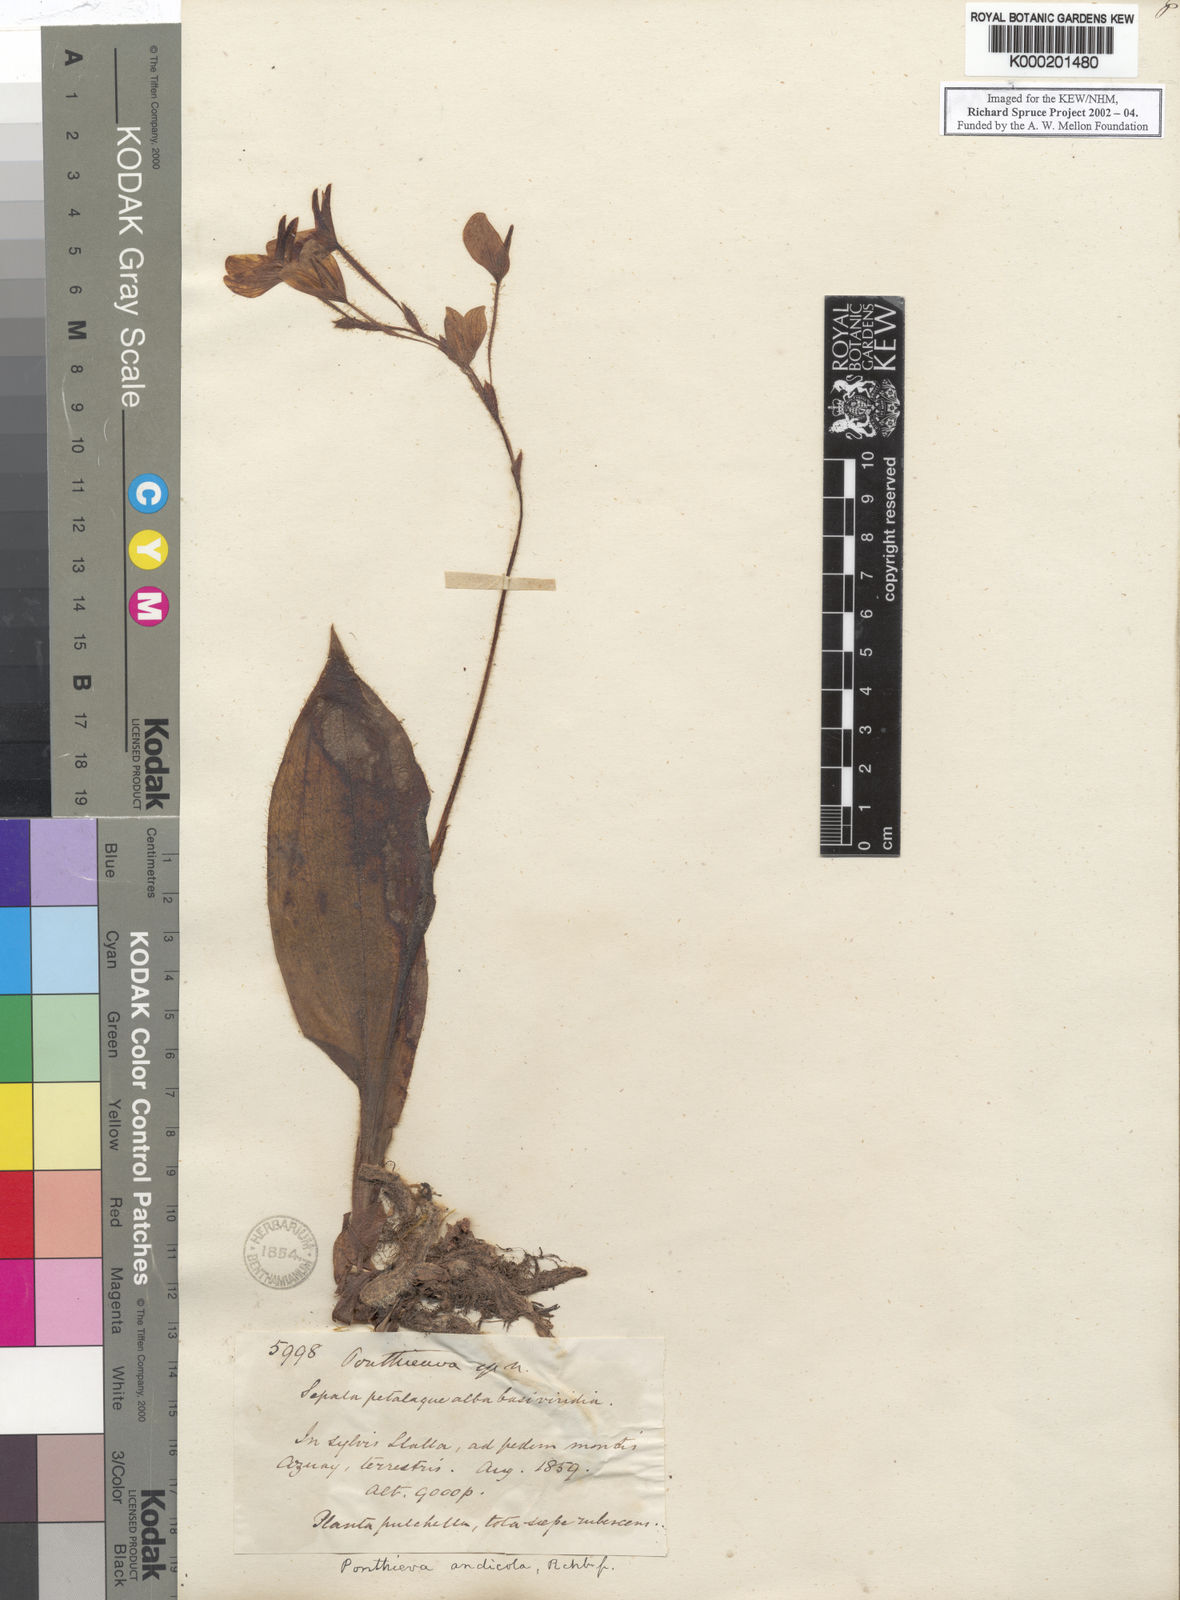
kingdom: Plantae
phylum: Tracheophyta
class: Liliopsida
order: Asparagales
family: Orchidaceae
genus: Ponthieva
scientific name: Ponthieva andicola
